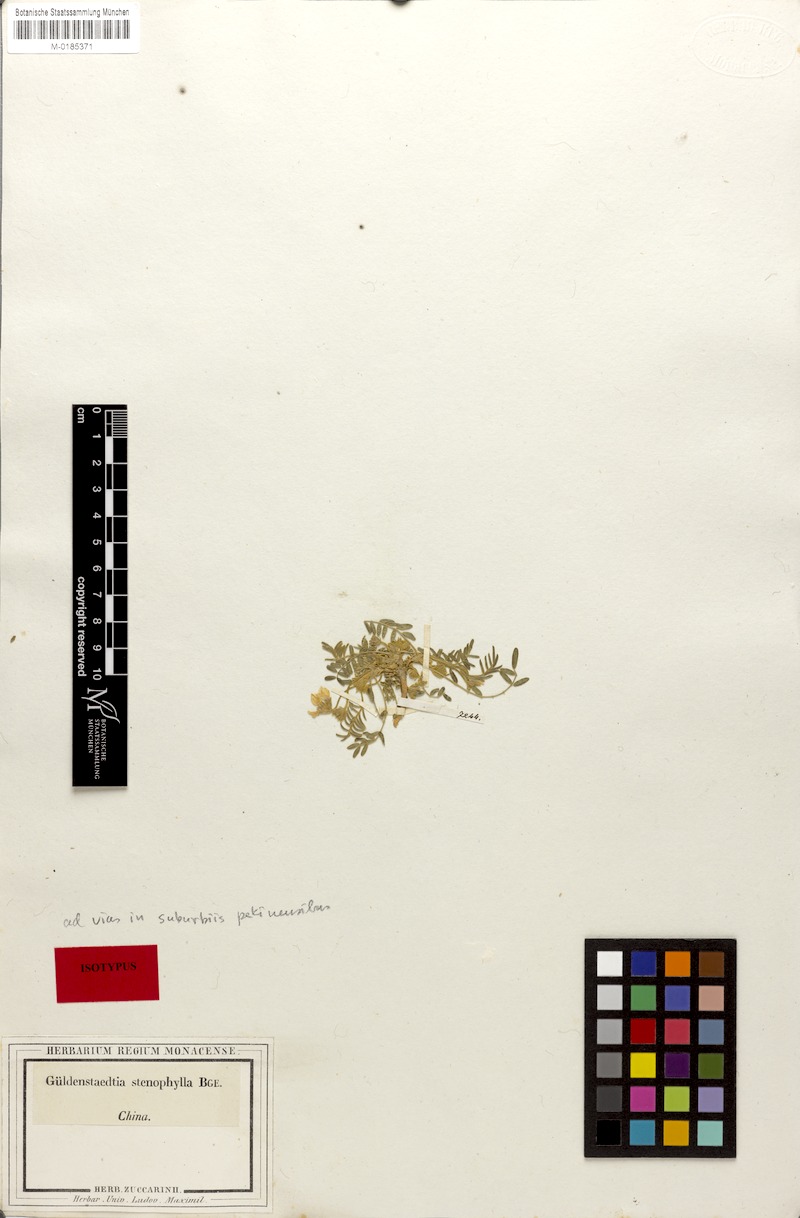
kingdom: Plantae
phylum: Tracheophyta
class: Magnoliopsida
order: Fabales
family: Fabaceae
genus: Gueldenstaedtia
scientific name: Gueldenstaedtia verna
